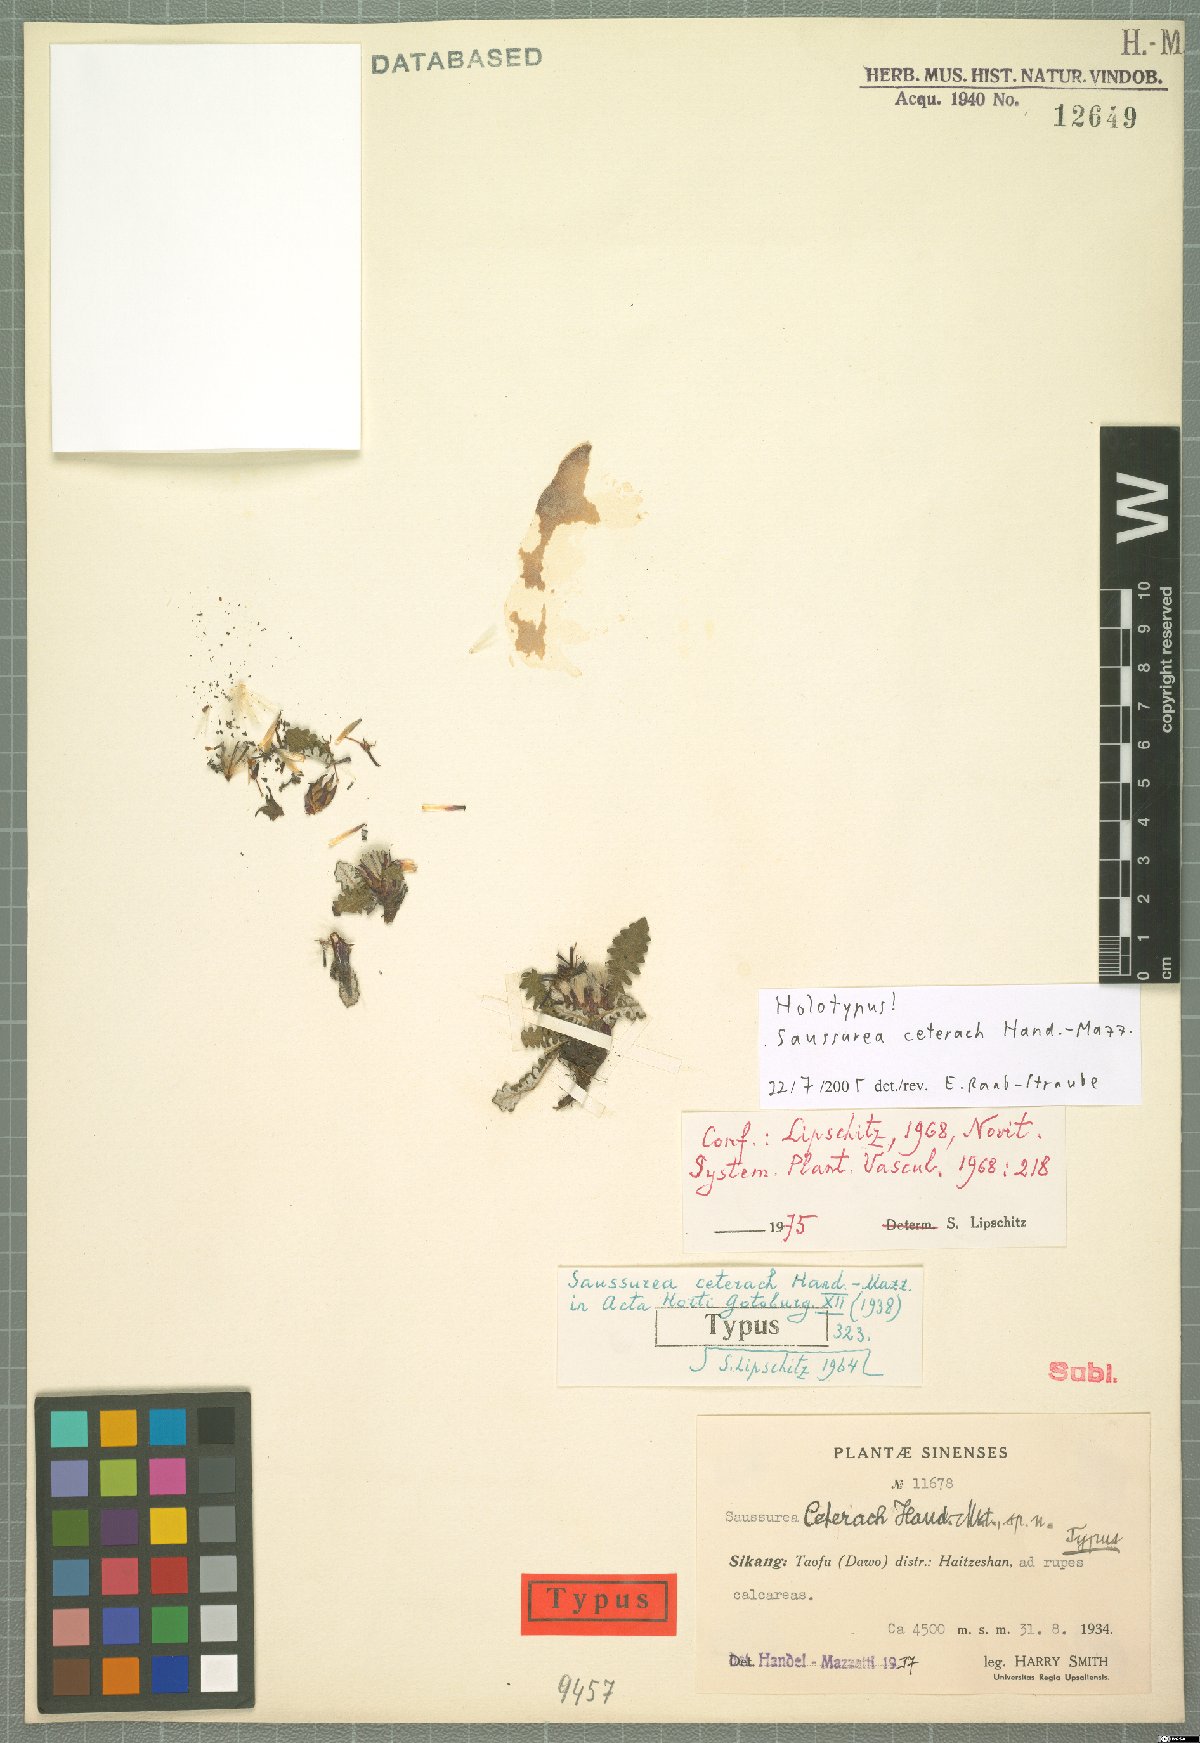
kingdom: Plantae
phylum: Tracheophyta
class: Magnoliopsida
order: Asterales
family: Asteraceae
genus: Saussurea
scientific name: Saussurea ceterach
